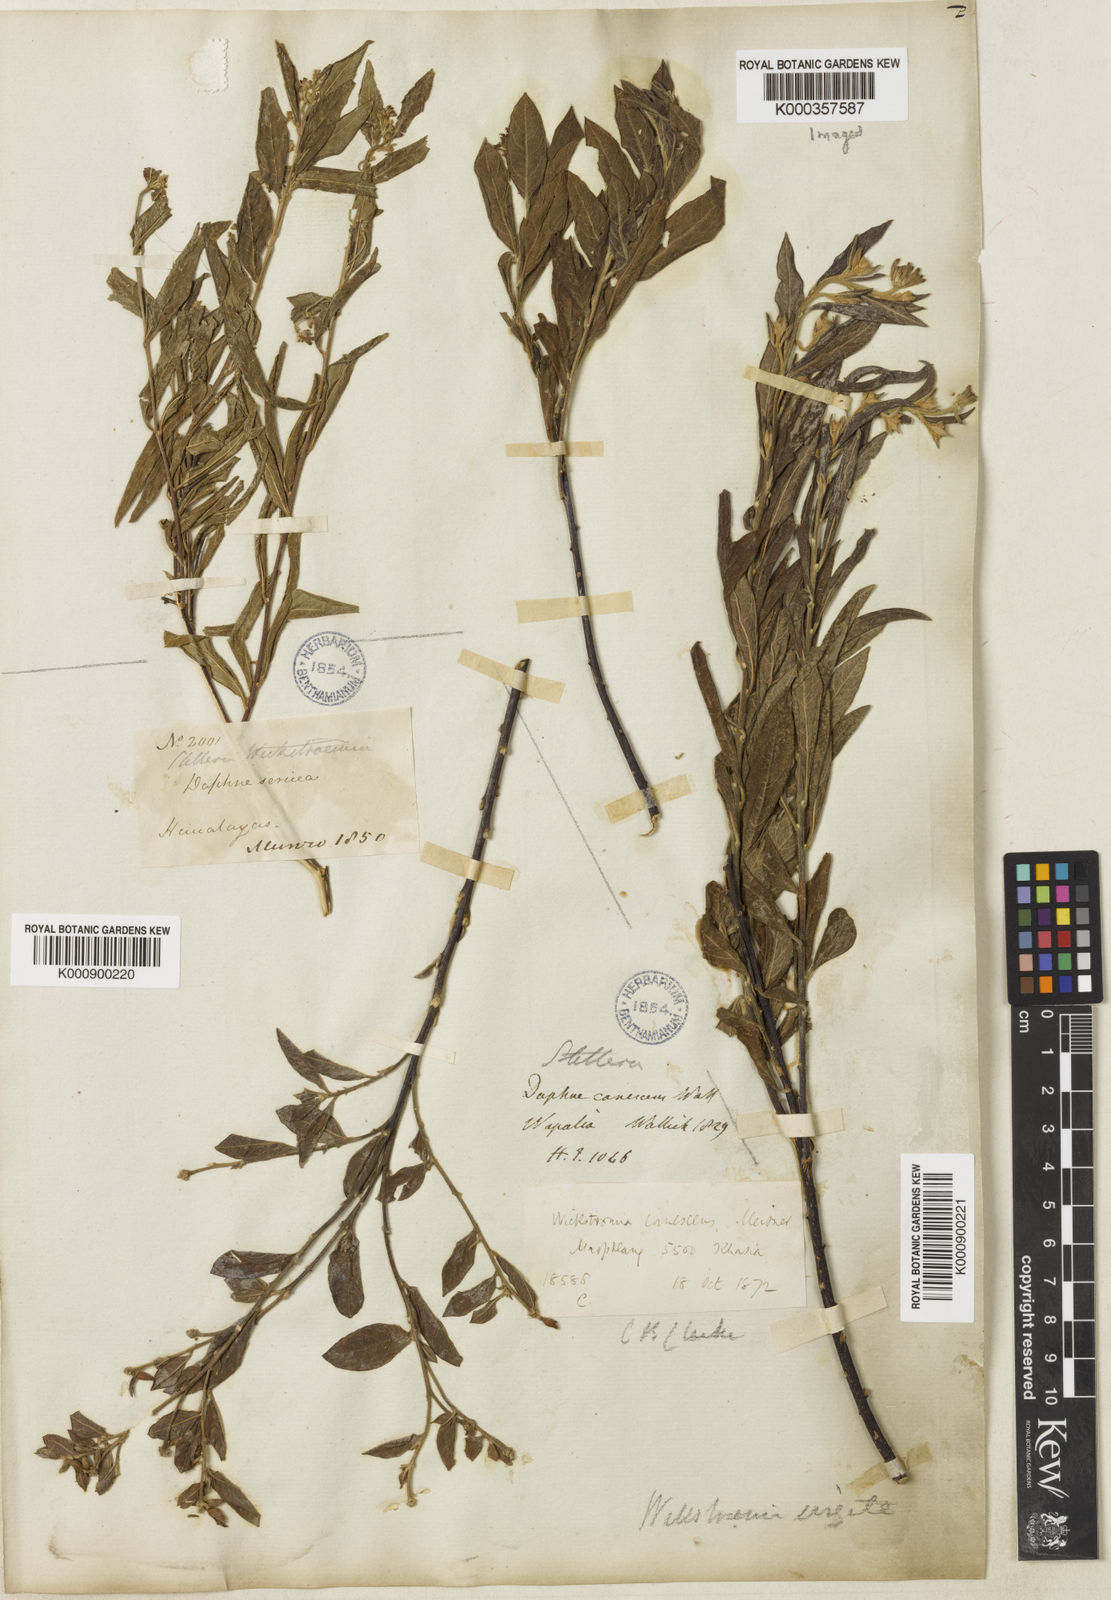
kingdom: Plantae
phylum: Tracheophyta
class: Magnoliopsida
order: Malvales
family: Thymelaeaceae
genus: Wikstroemia
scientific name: Wikstroemia canescens
